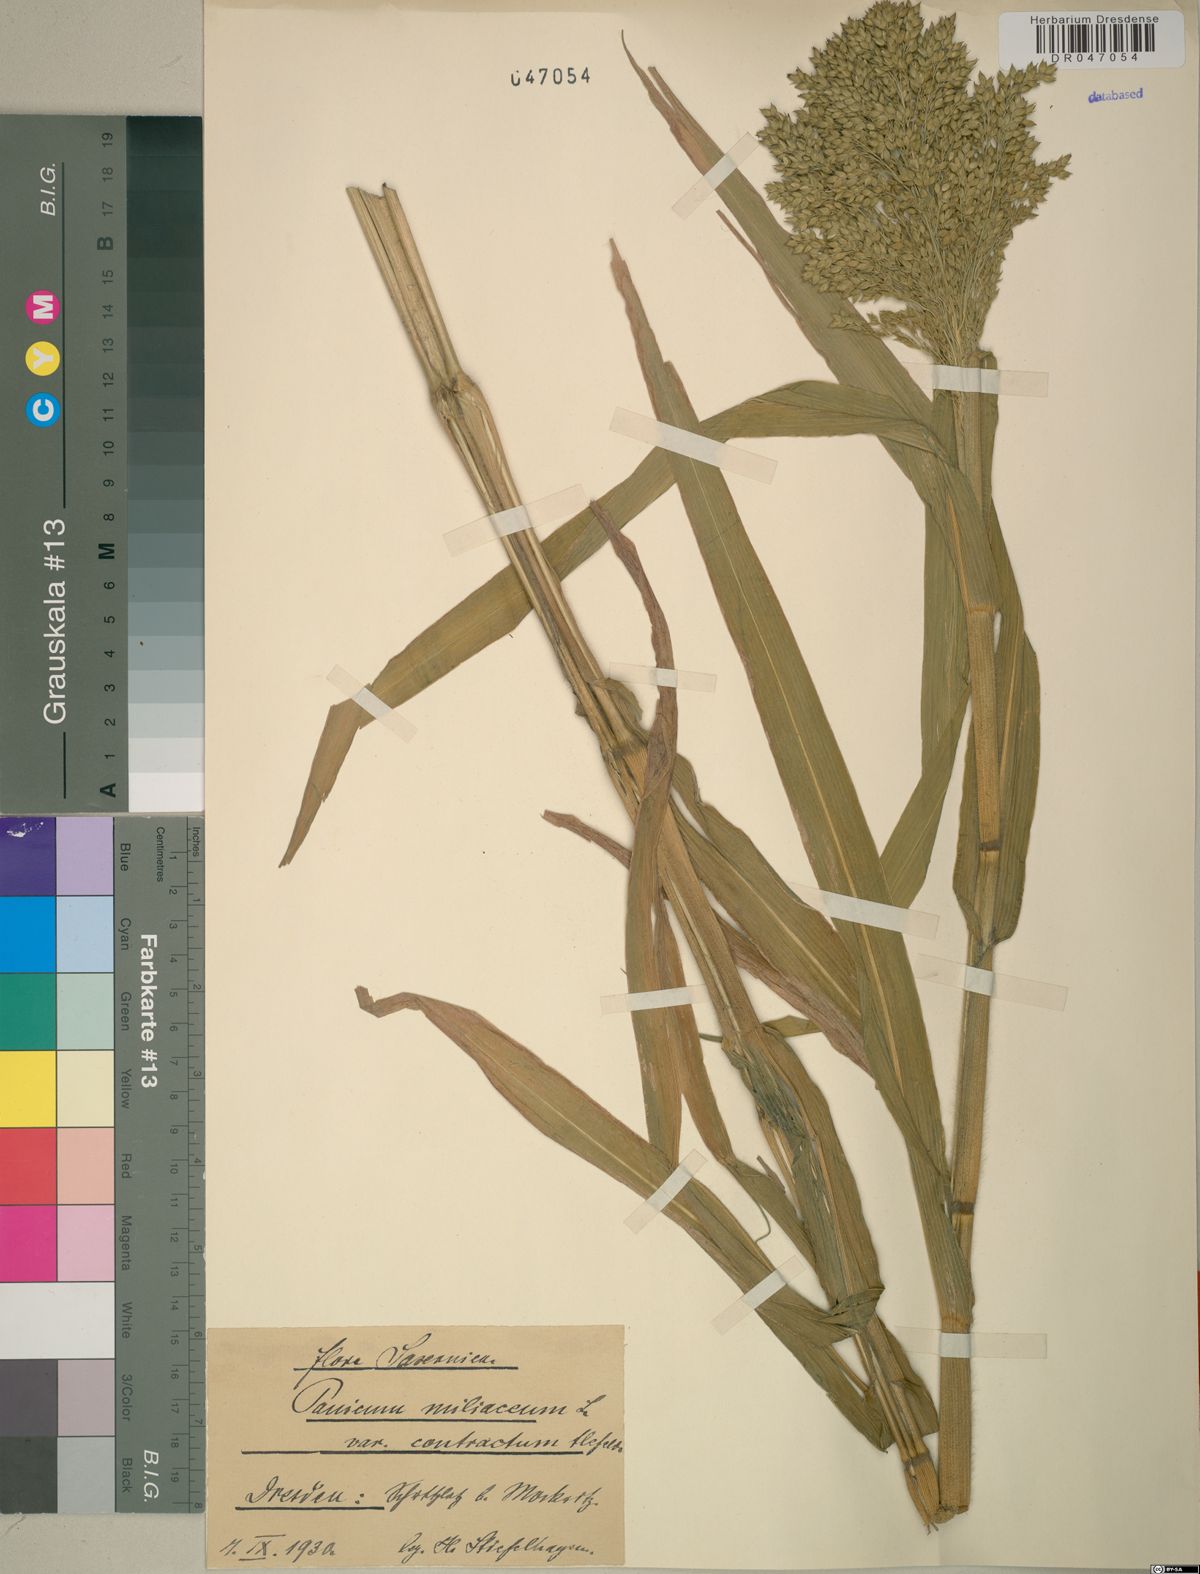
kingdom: Plantae
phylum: Tracheophyta
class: Liliopsida
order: Poales
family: Poaceae
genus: Panicum
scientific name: Panicum miliaceum
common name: Common millet
